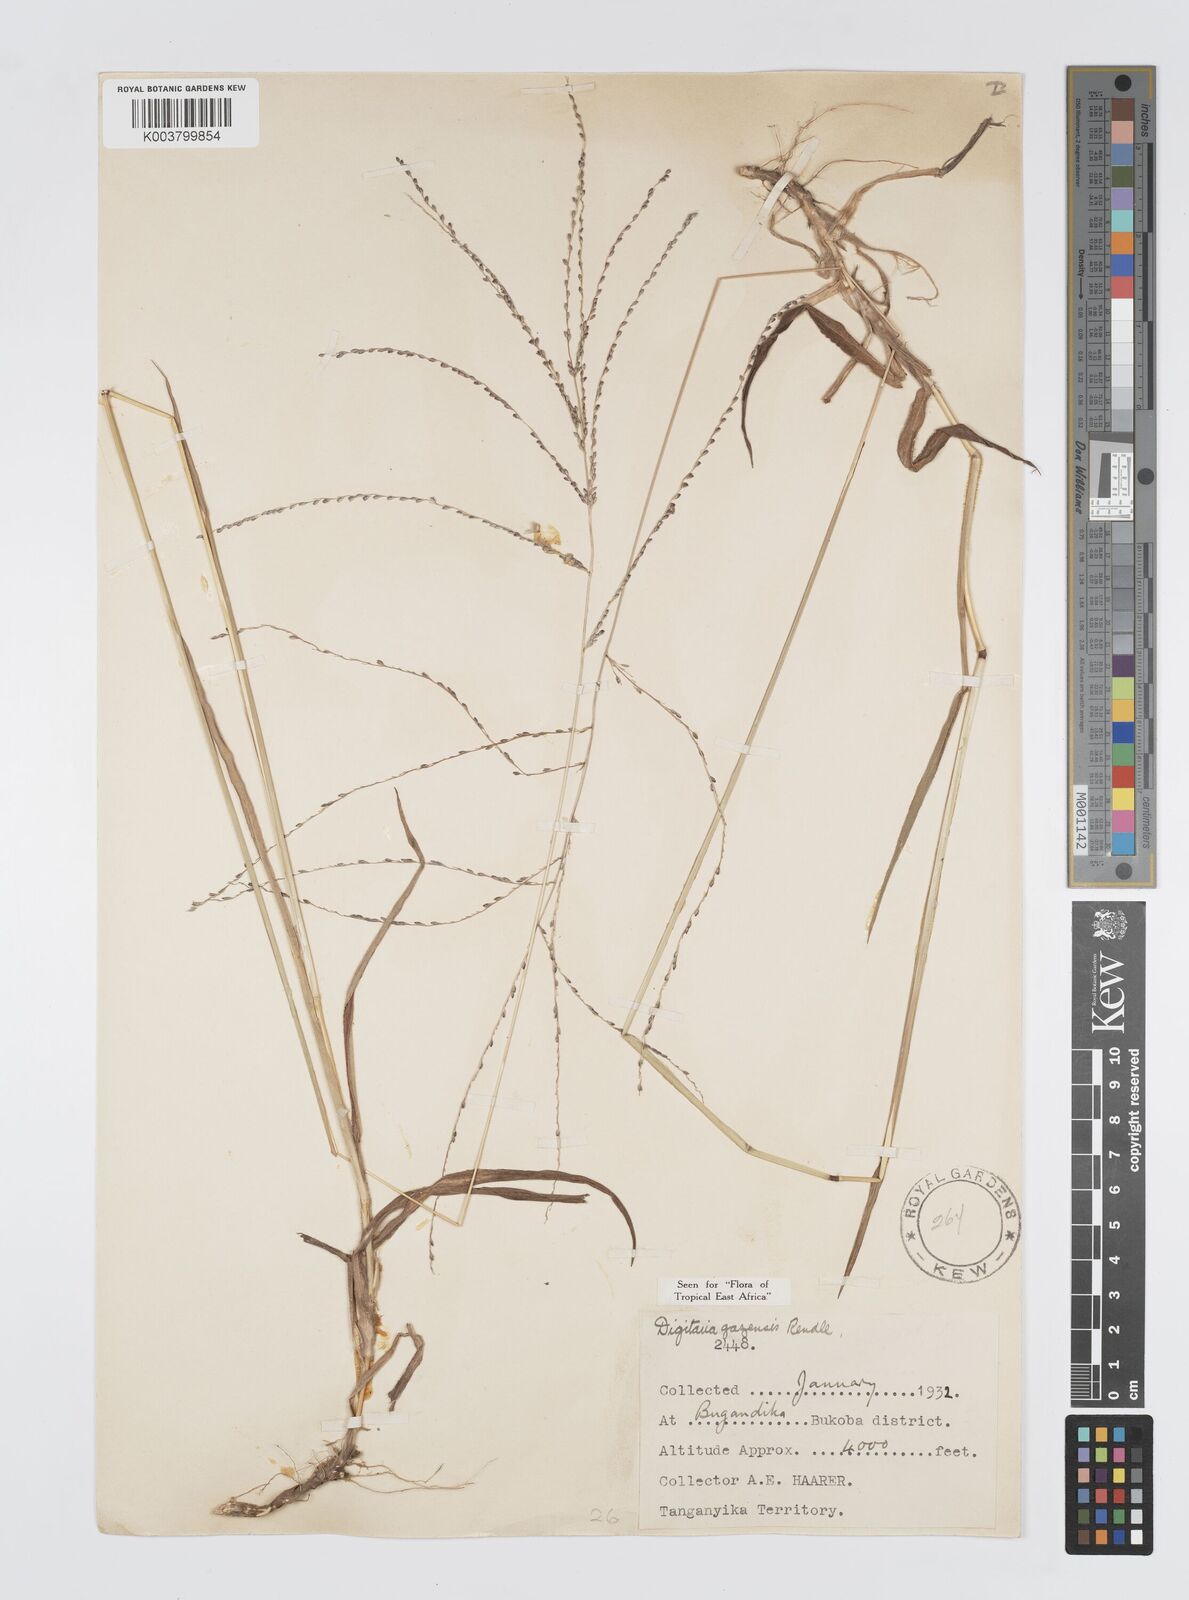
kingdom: Plantae
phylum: Tracheophyta
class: Liliopsida
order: Poales
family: Poaceae
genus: Digitaria
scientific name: Digitaria gazensis
